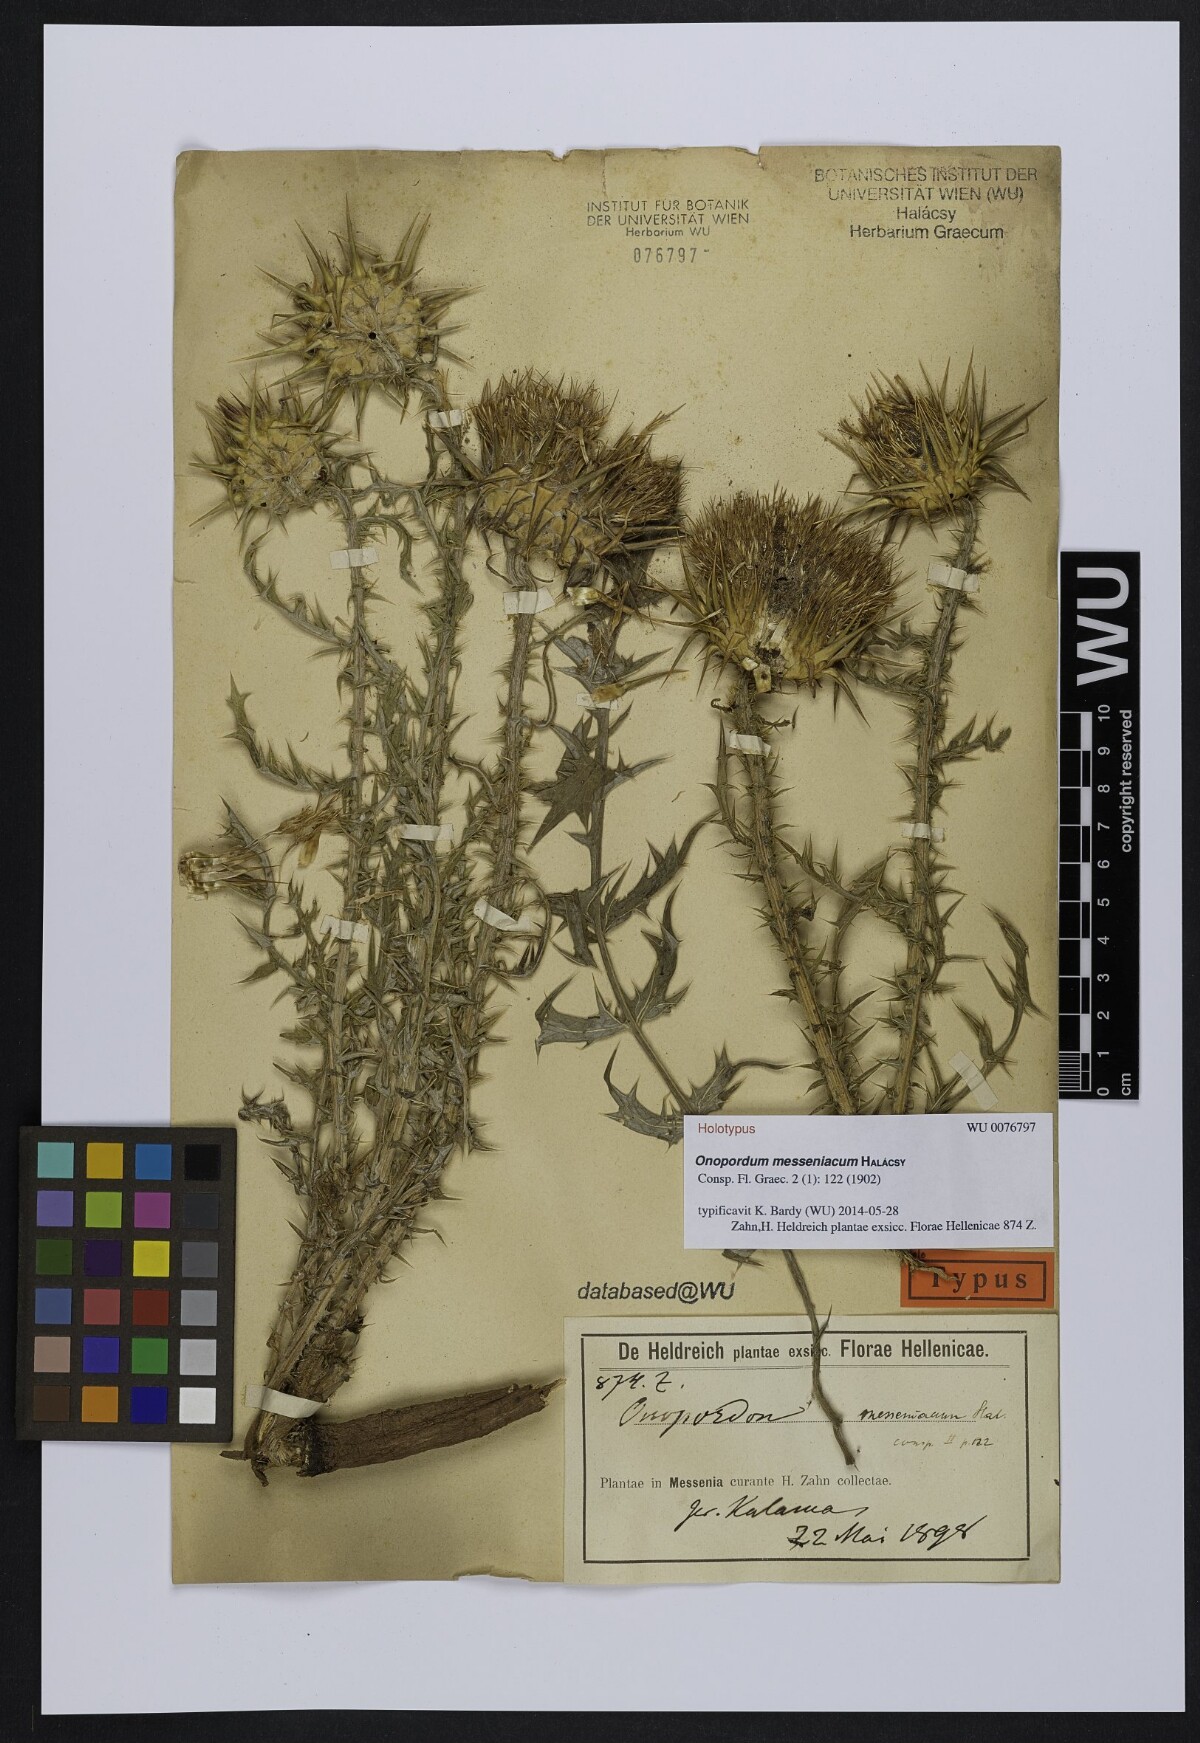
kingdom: Plantae
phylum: Tracheophyta
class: Magnoliopsida
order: Asterales
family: Asteraceae
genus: Onopordum
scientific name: Onopordum messeniacum
